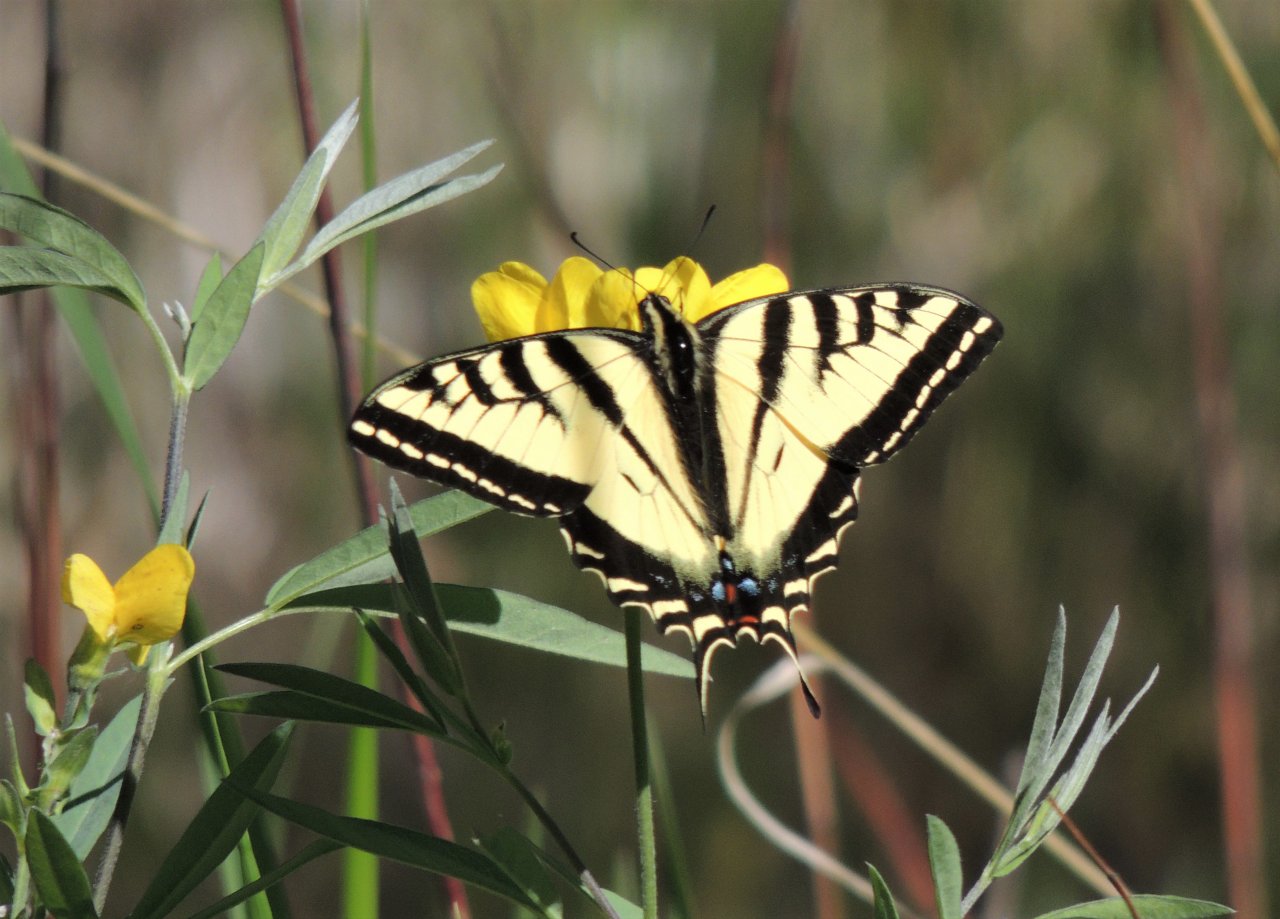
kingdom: Animalia
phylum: Arthropoda
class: Insecta
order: Lepidoptera
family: Papilionidae
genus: Pterourus
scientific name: Pterourus rutulus
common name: Western Tiger Swallowtail
